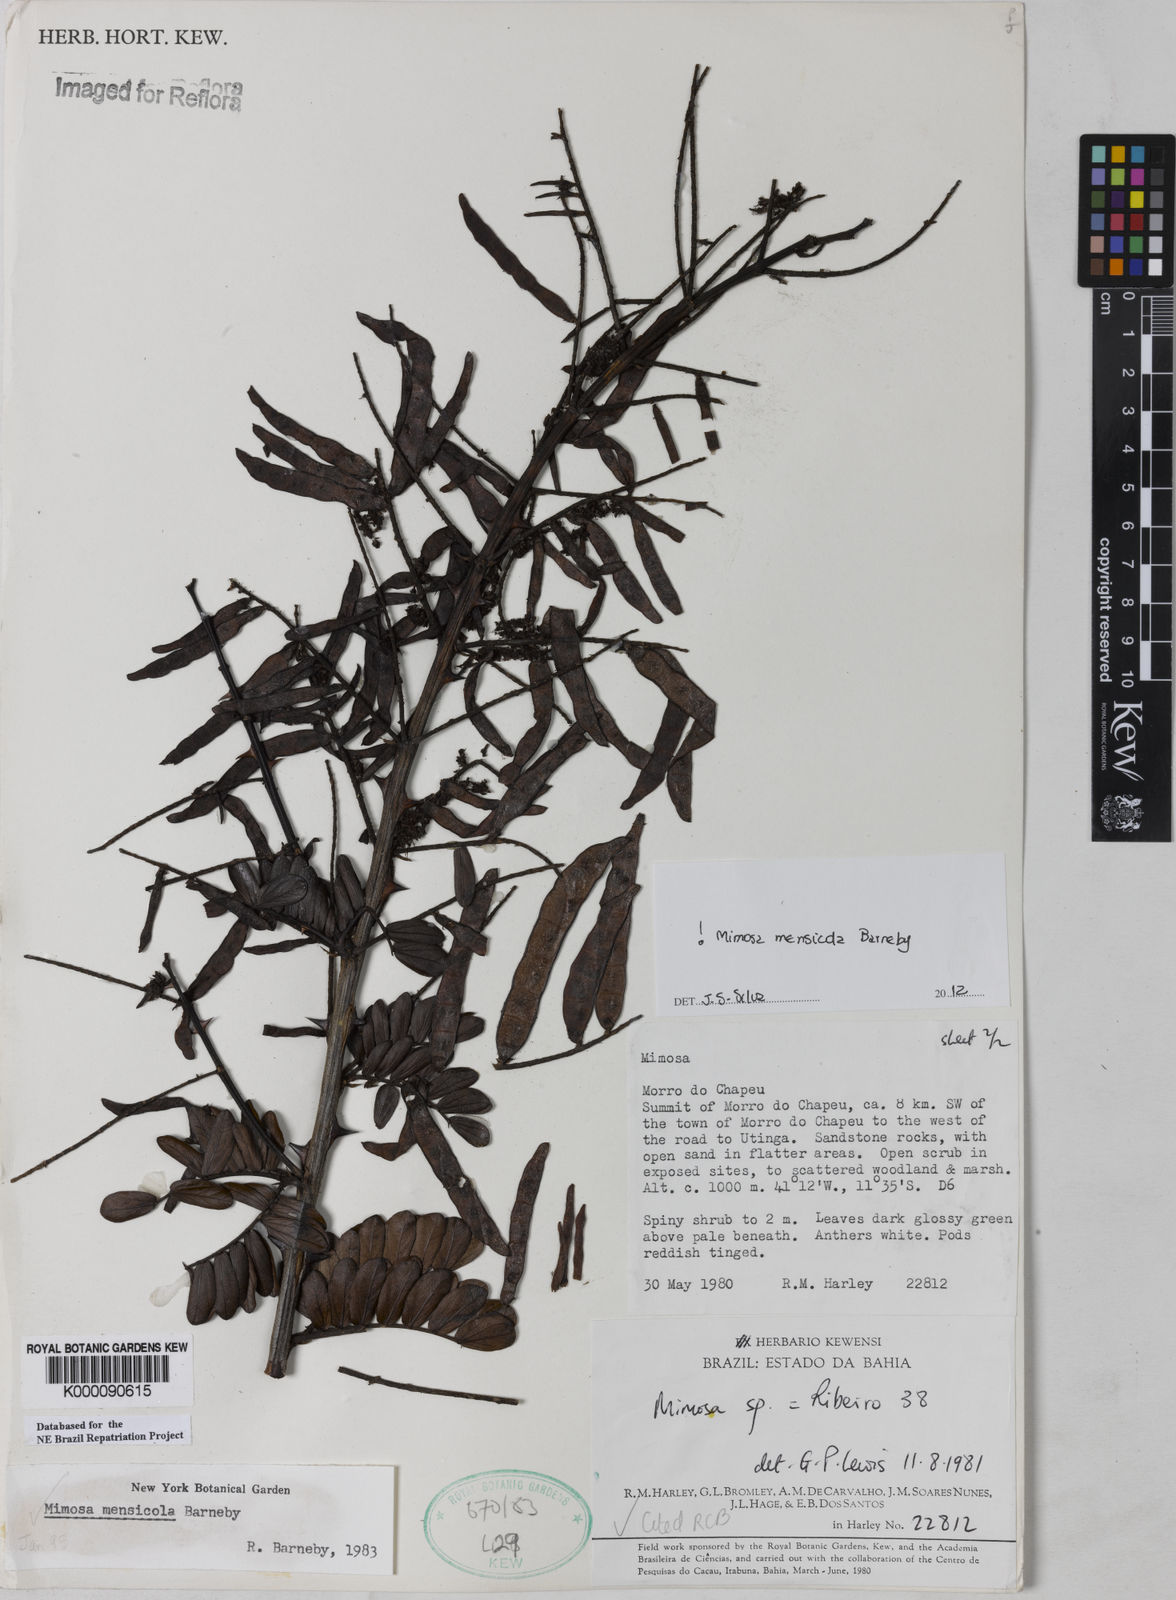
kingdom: Plantae
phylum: Tracheophyta
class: Magnoliopsida
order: Fabales
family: Fabaceae
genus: Mimosa
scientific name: Mimosa mensicola
